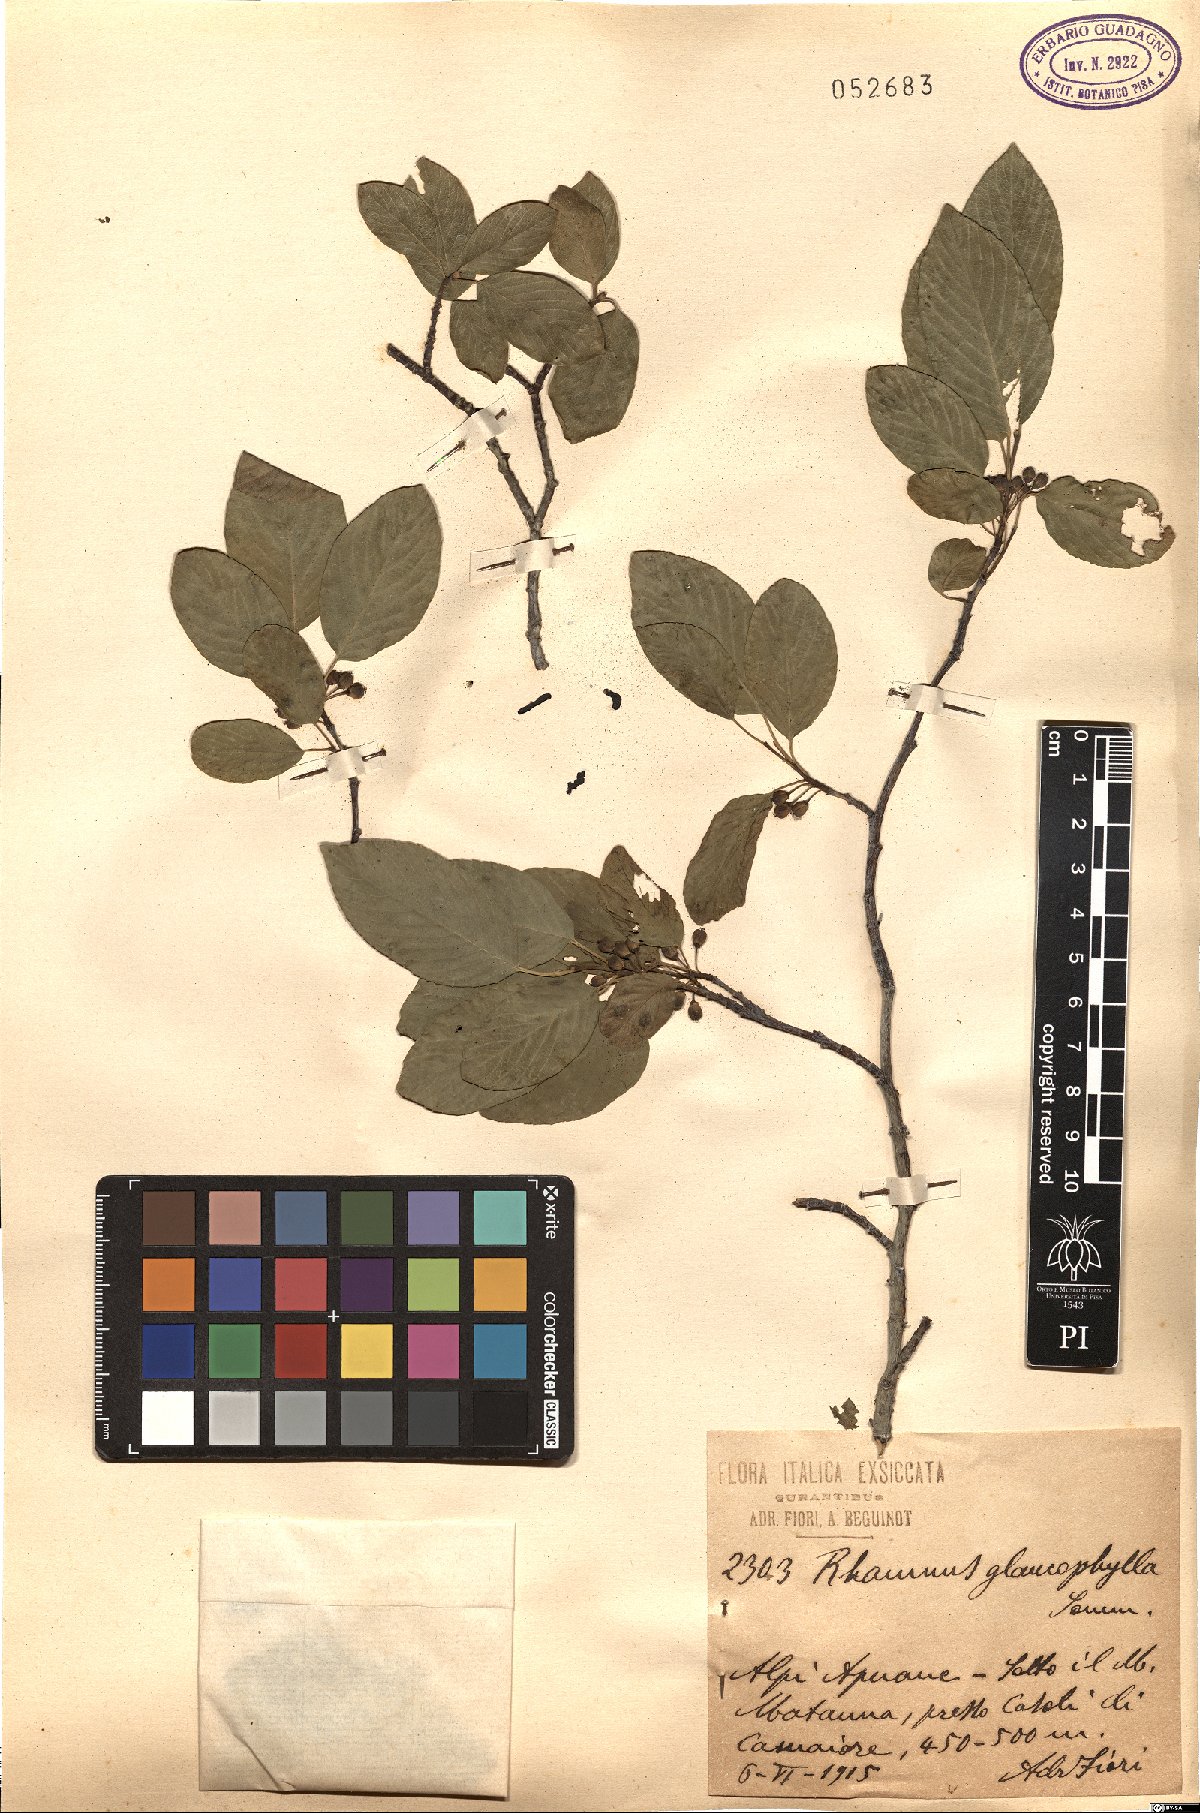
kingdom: Plantae
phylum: Tracheophyta
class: Magnoliopsida
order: Rosales
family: Rhamnaceae
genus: Atadinus
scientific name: Atadinus glaucophyllus
